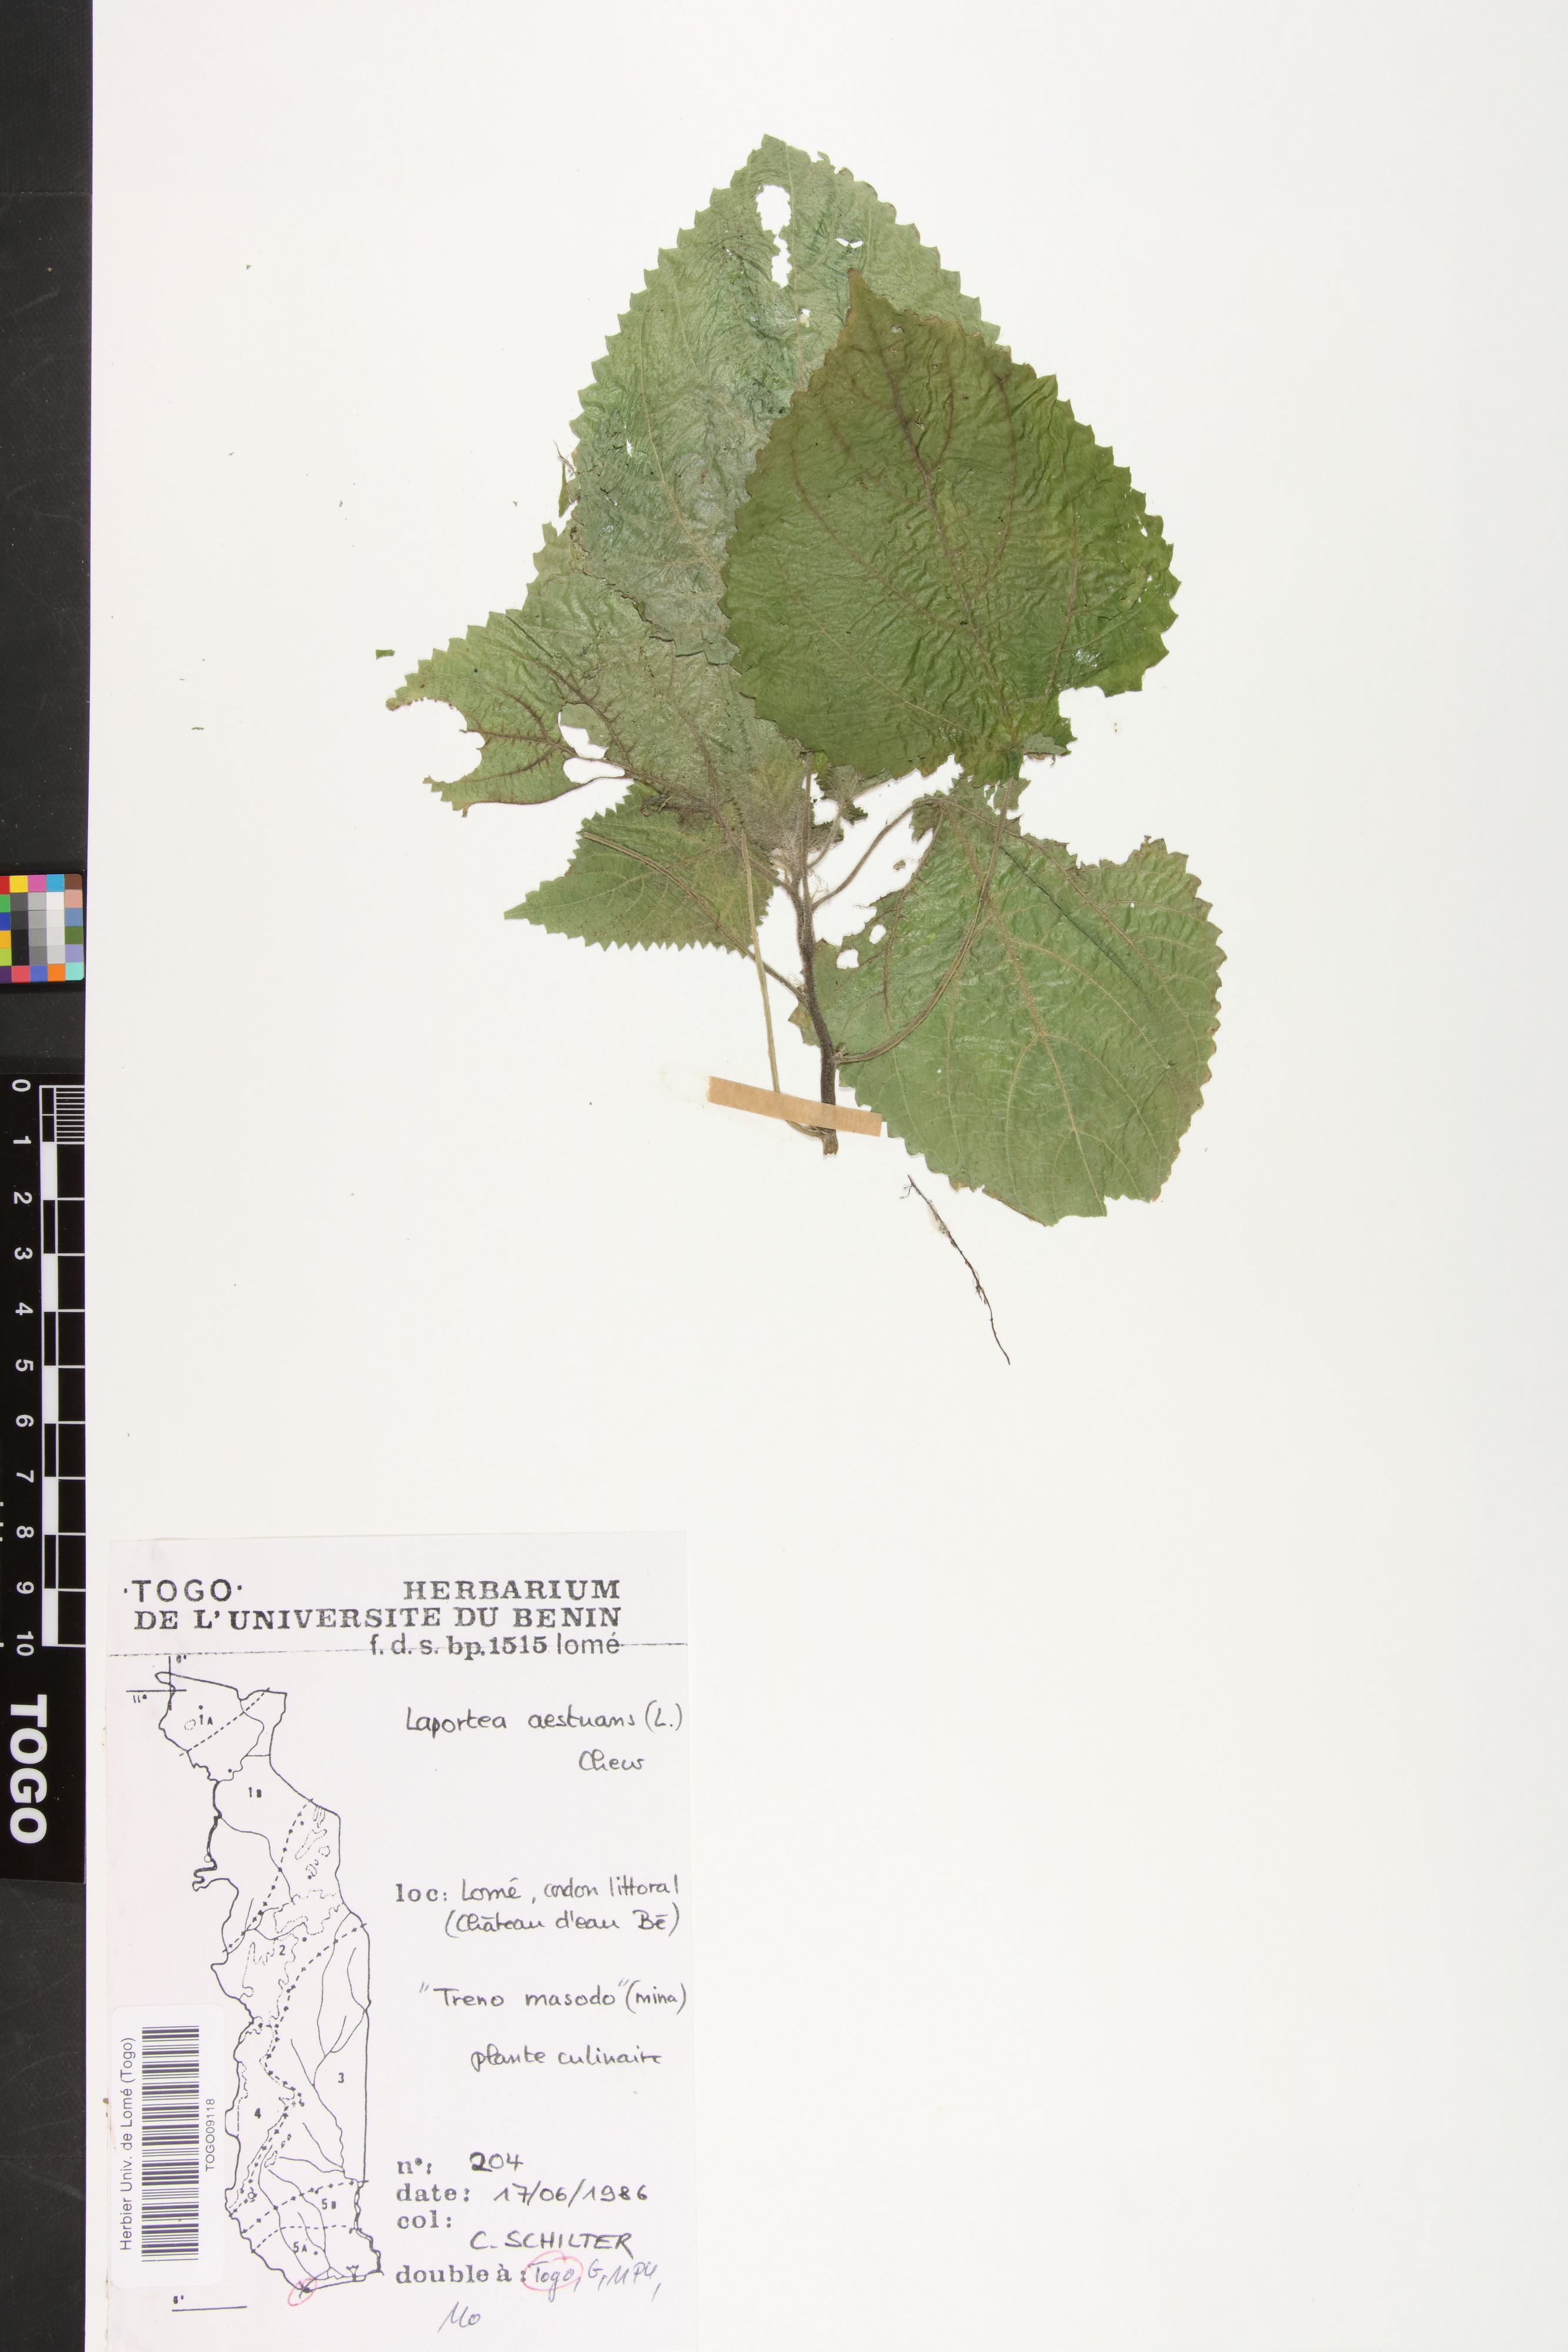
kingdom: Plantae
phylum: Tracheophyta
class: Magnoliopsida
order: Rosales
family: Urticaceae
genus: Laportea
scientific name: Laportea aestuans
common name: West indian woodnettle
